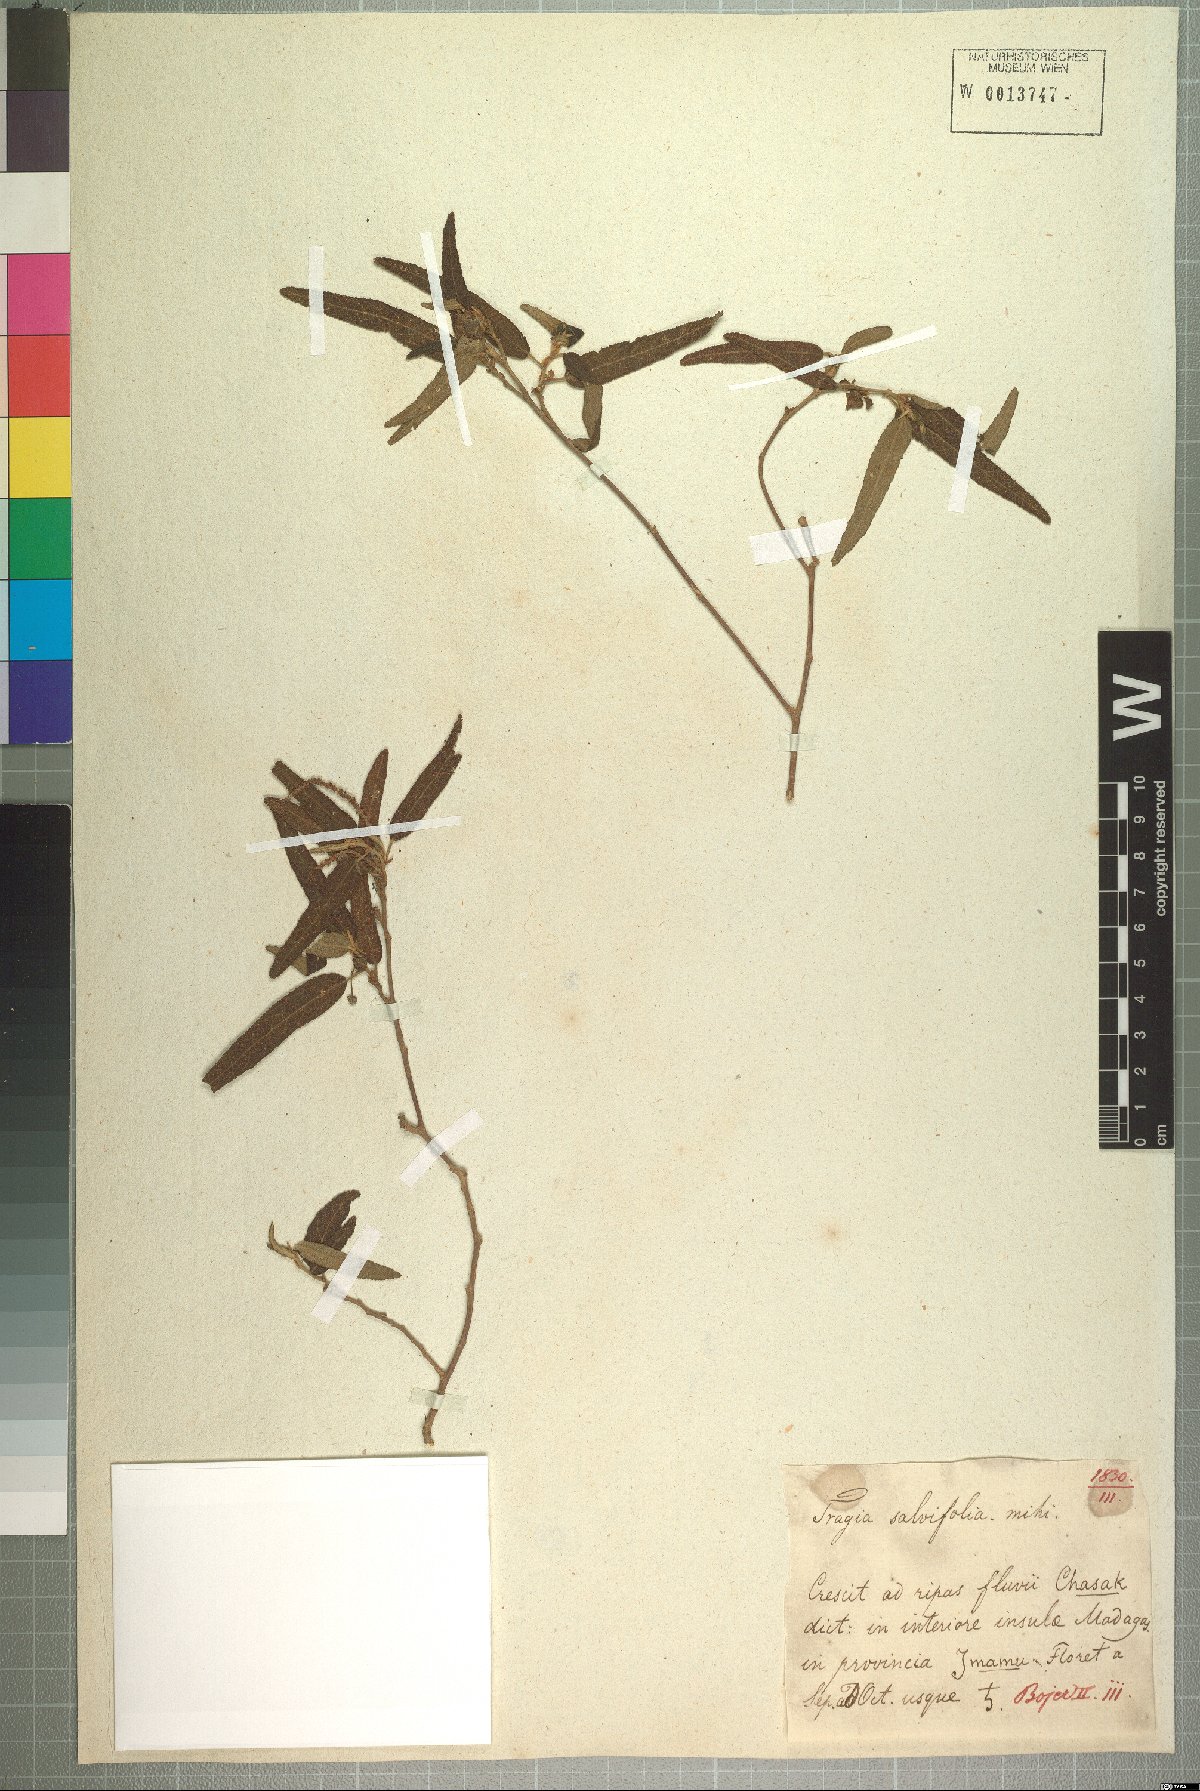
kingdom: Plantae
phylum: Tracheophyta
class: Magnoliopsida
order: Malpighiales
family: Euphorbiaceae
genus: Acalypha
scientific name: Acalypha radula
